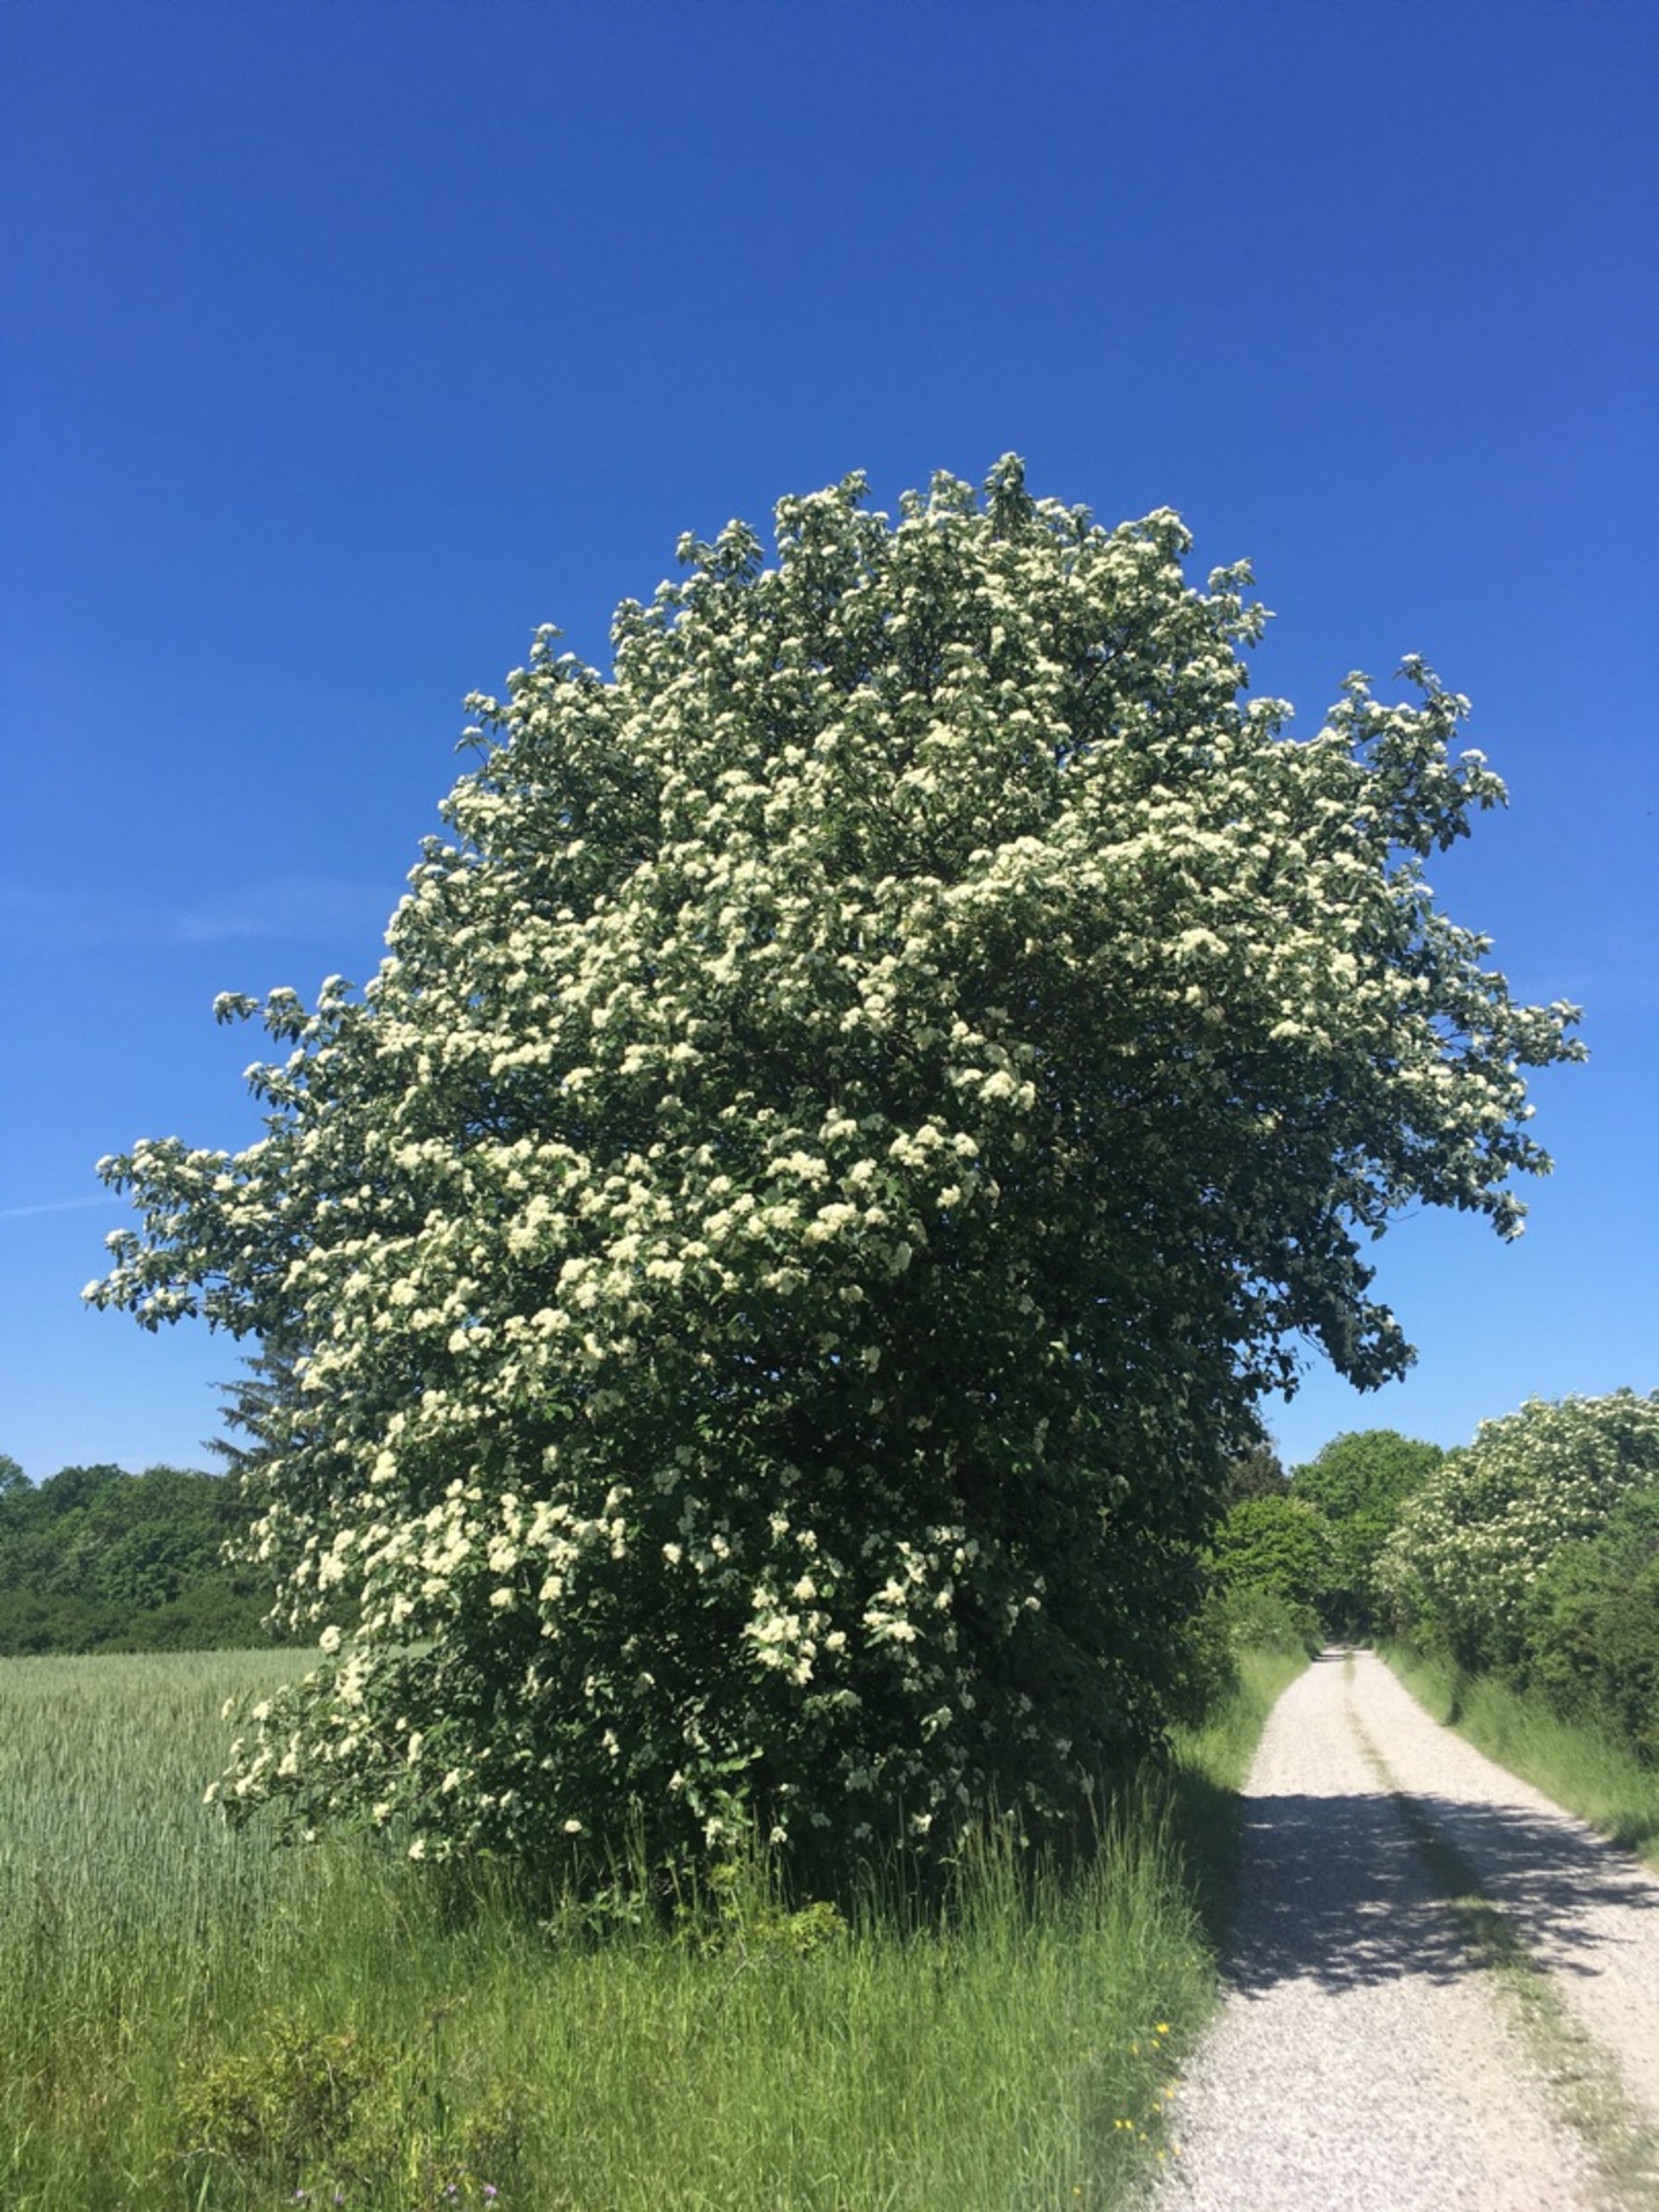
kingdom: Plantae
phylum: Tracheophyta
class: Magnoliopsida
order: Rosales
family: Rosaceae
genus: Scandosorbus
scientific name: Scandosorbus intermedia
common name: Selje-røn
